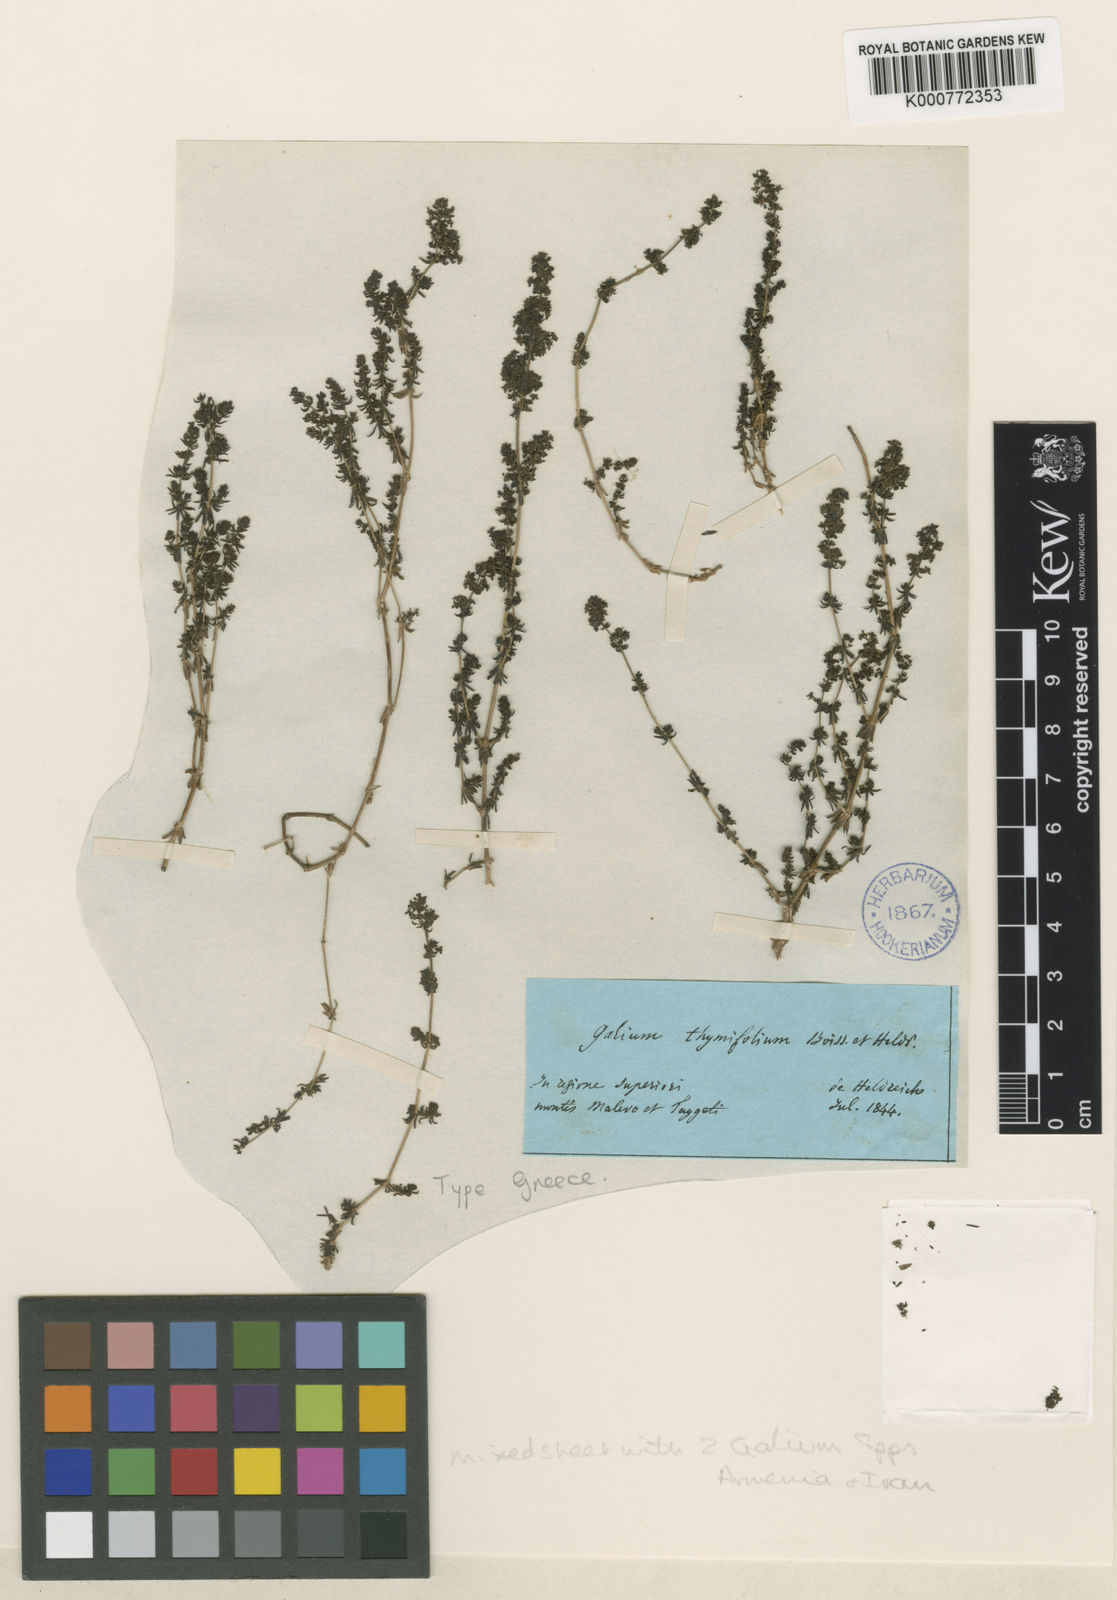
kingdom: Plantae
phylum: Tracheophyta
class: Magnoliopsida
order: Gentianales
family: Rubiaceae
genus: Galium
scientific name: Galium thymifolium
